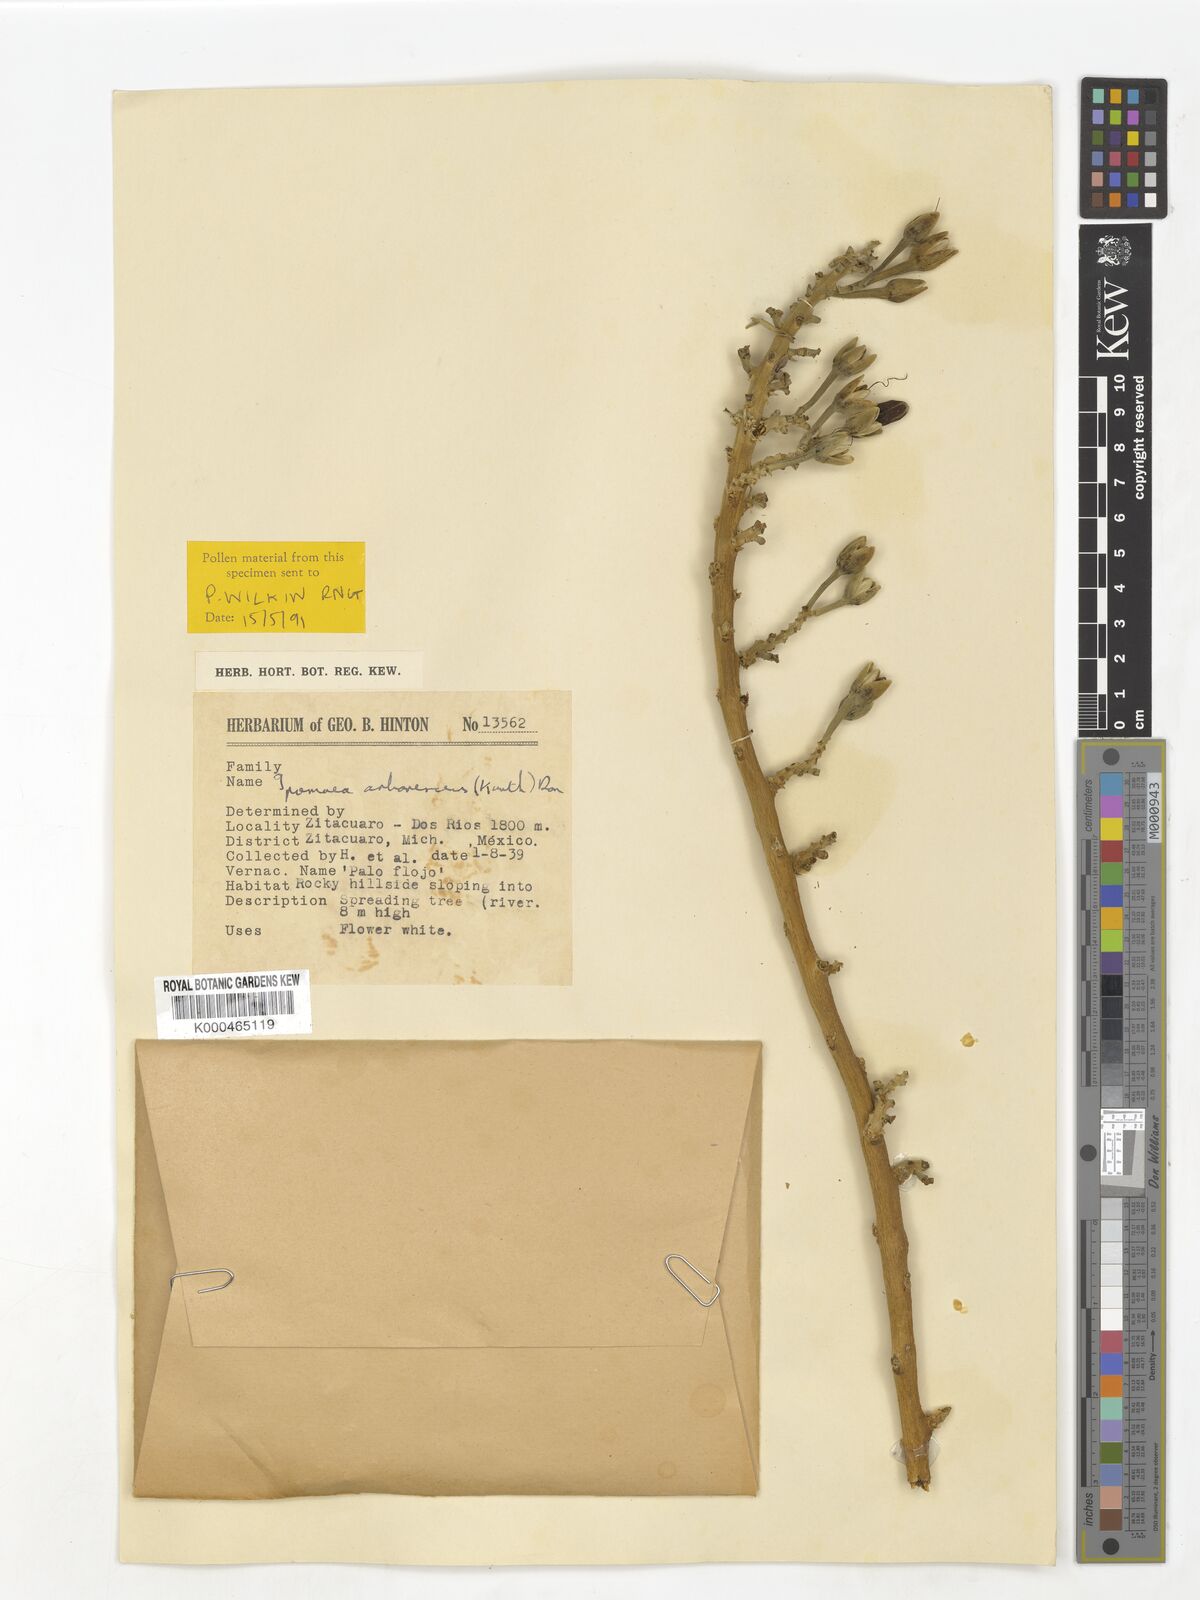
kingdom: Plantae
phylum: Tracheophyta
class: Magnoliopsida
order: Solanales
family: Convolvulaceae
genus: Ipomoea
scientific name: Ipomoea arborescens
